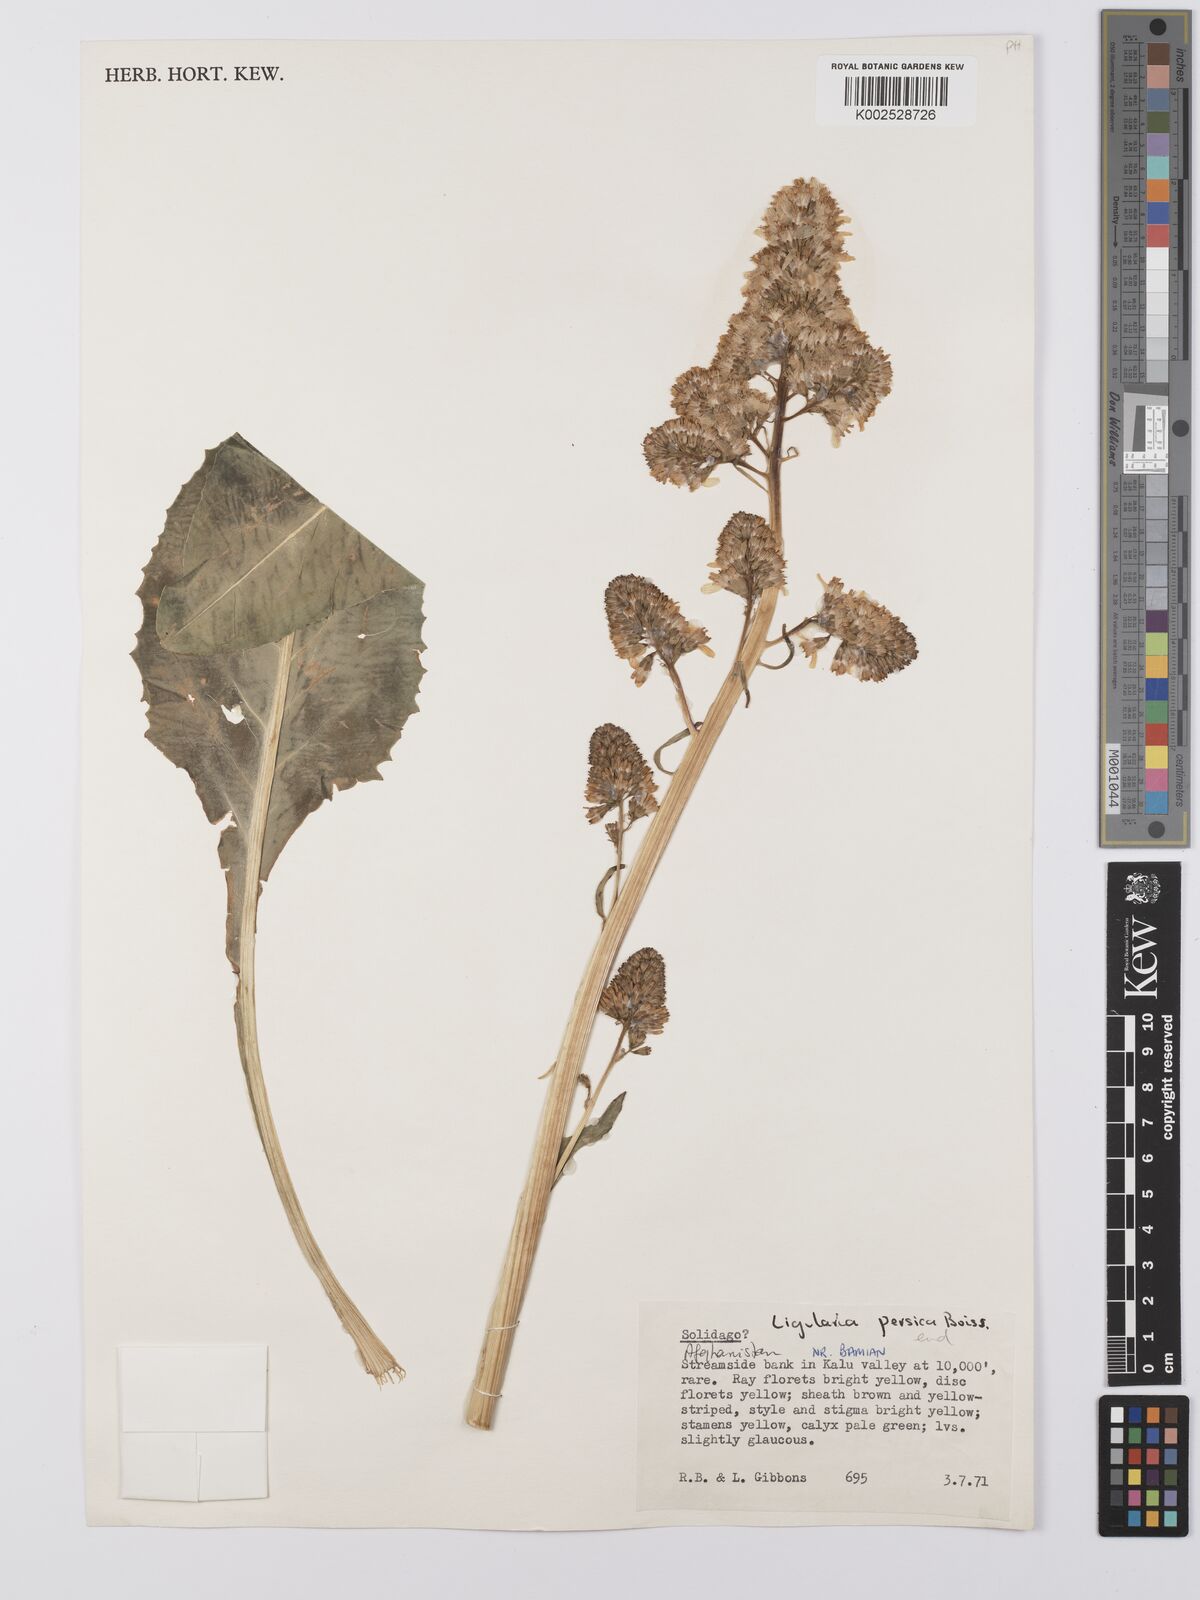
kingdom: Plantae
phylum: Tracheophyta
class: Magnoliopsida
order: Asterales
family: Asteraceae
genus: Ligularia
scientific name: Ligularia afghanica
